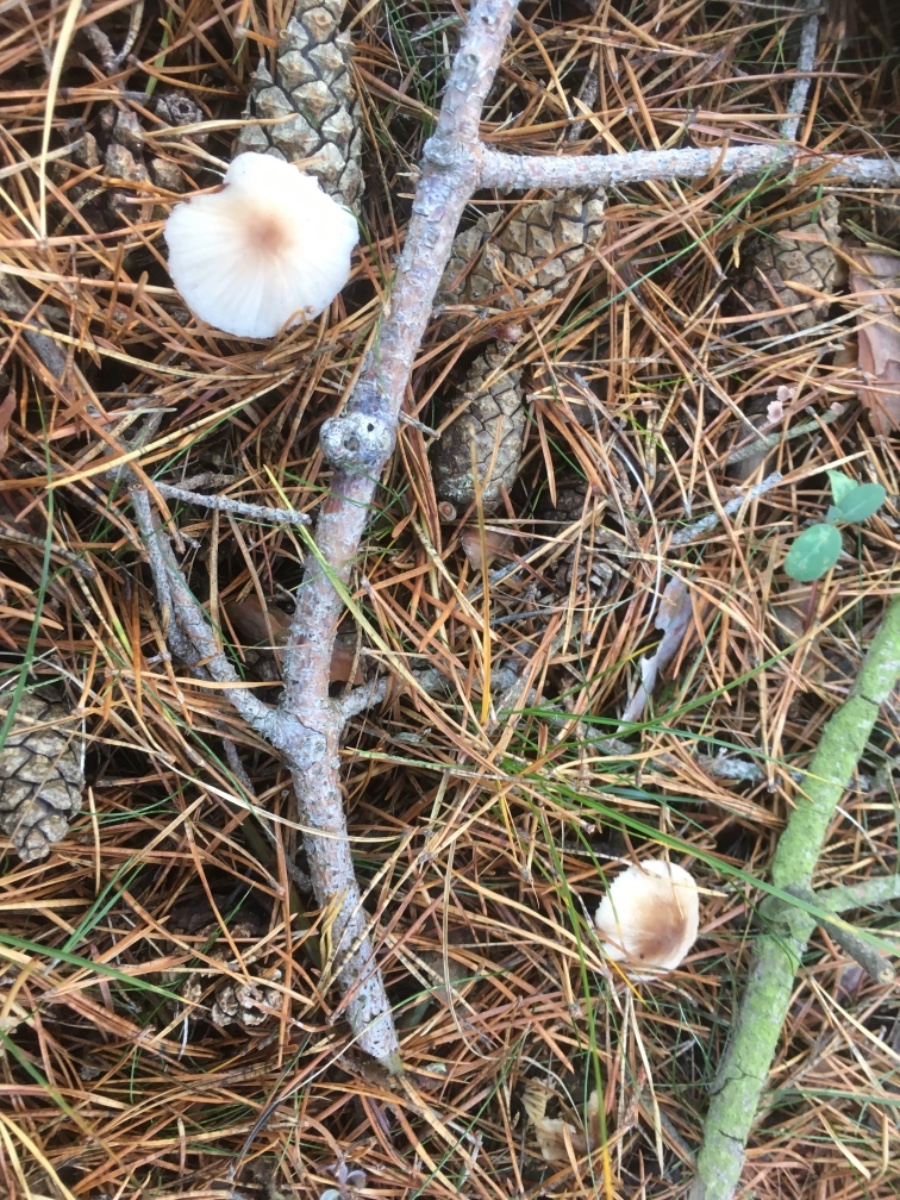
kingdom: Fungi
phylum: Basidiomycota
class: Agaricomycetes
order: Agaricales
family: Mycenaceae
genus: Mycena
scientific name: Mycena zephirus
